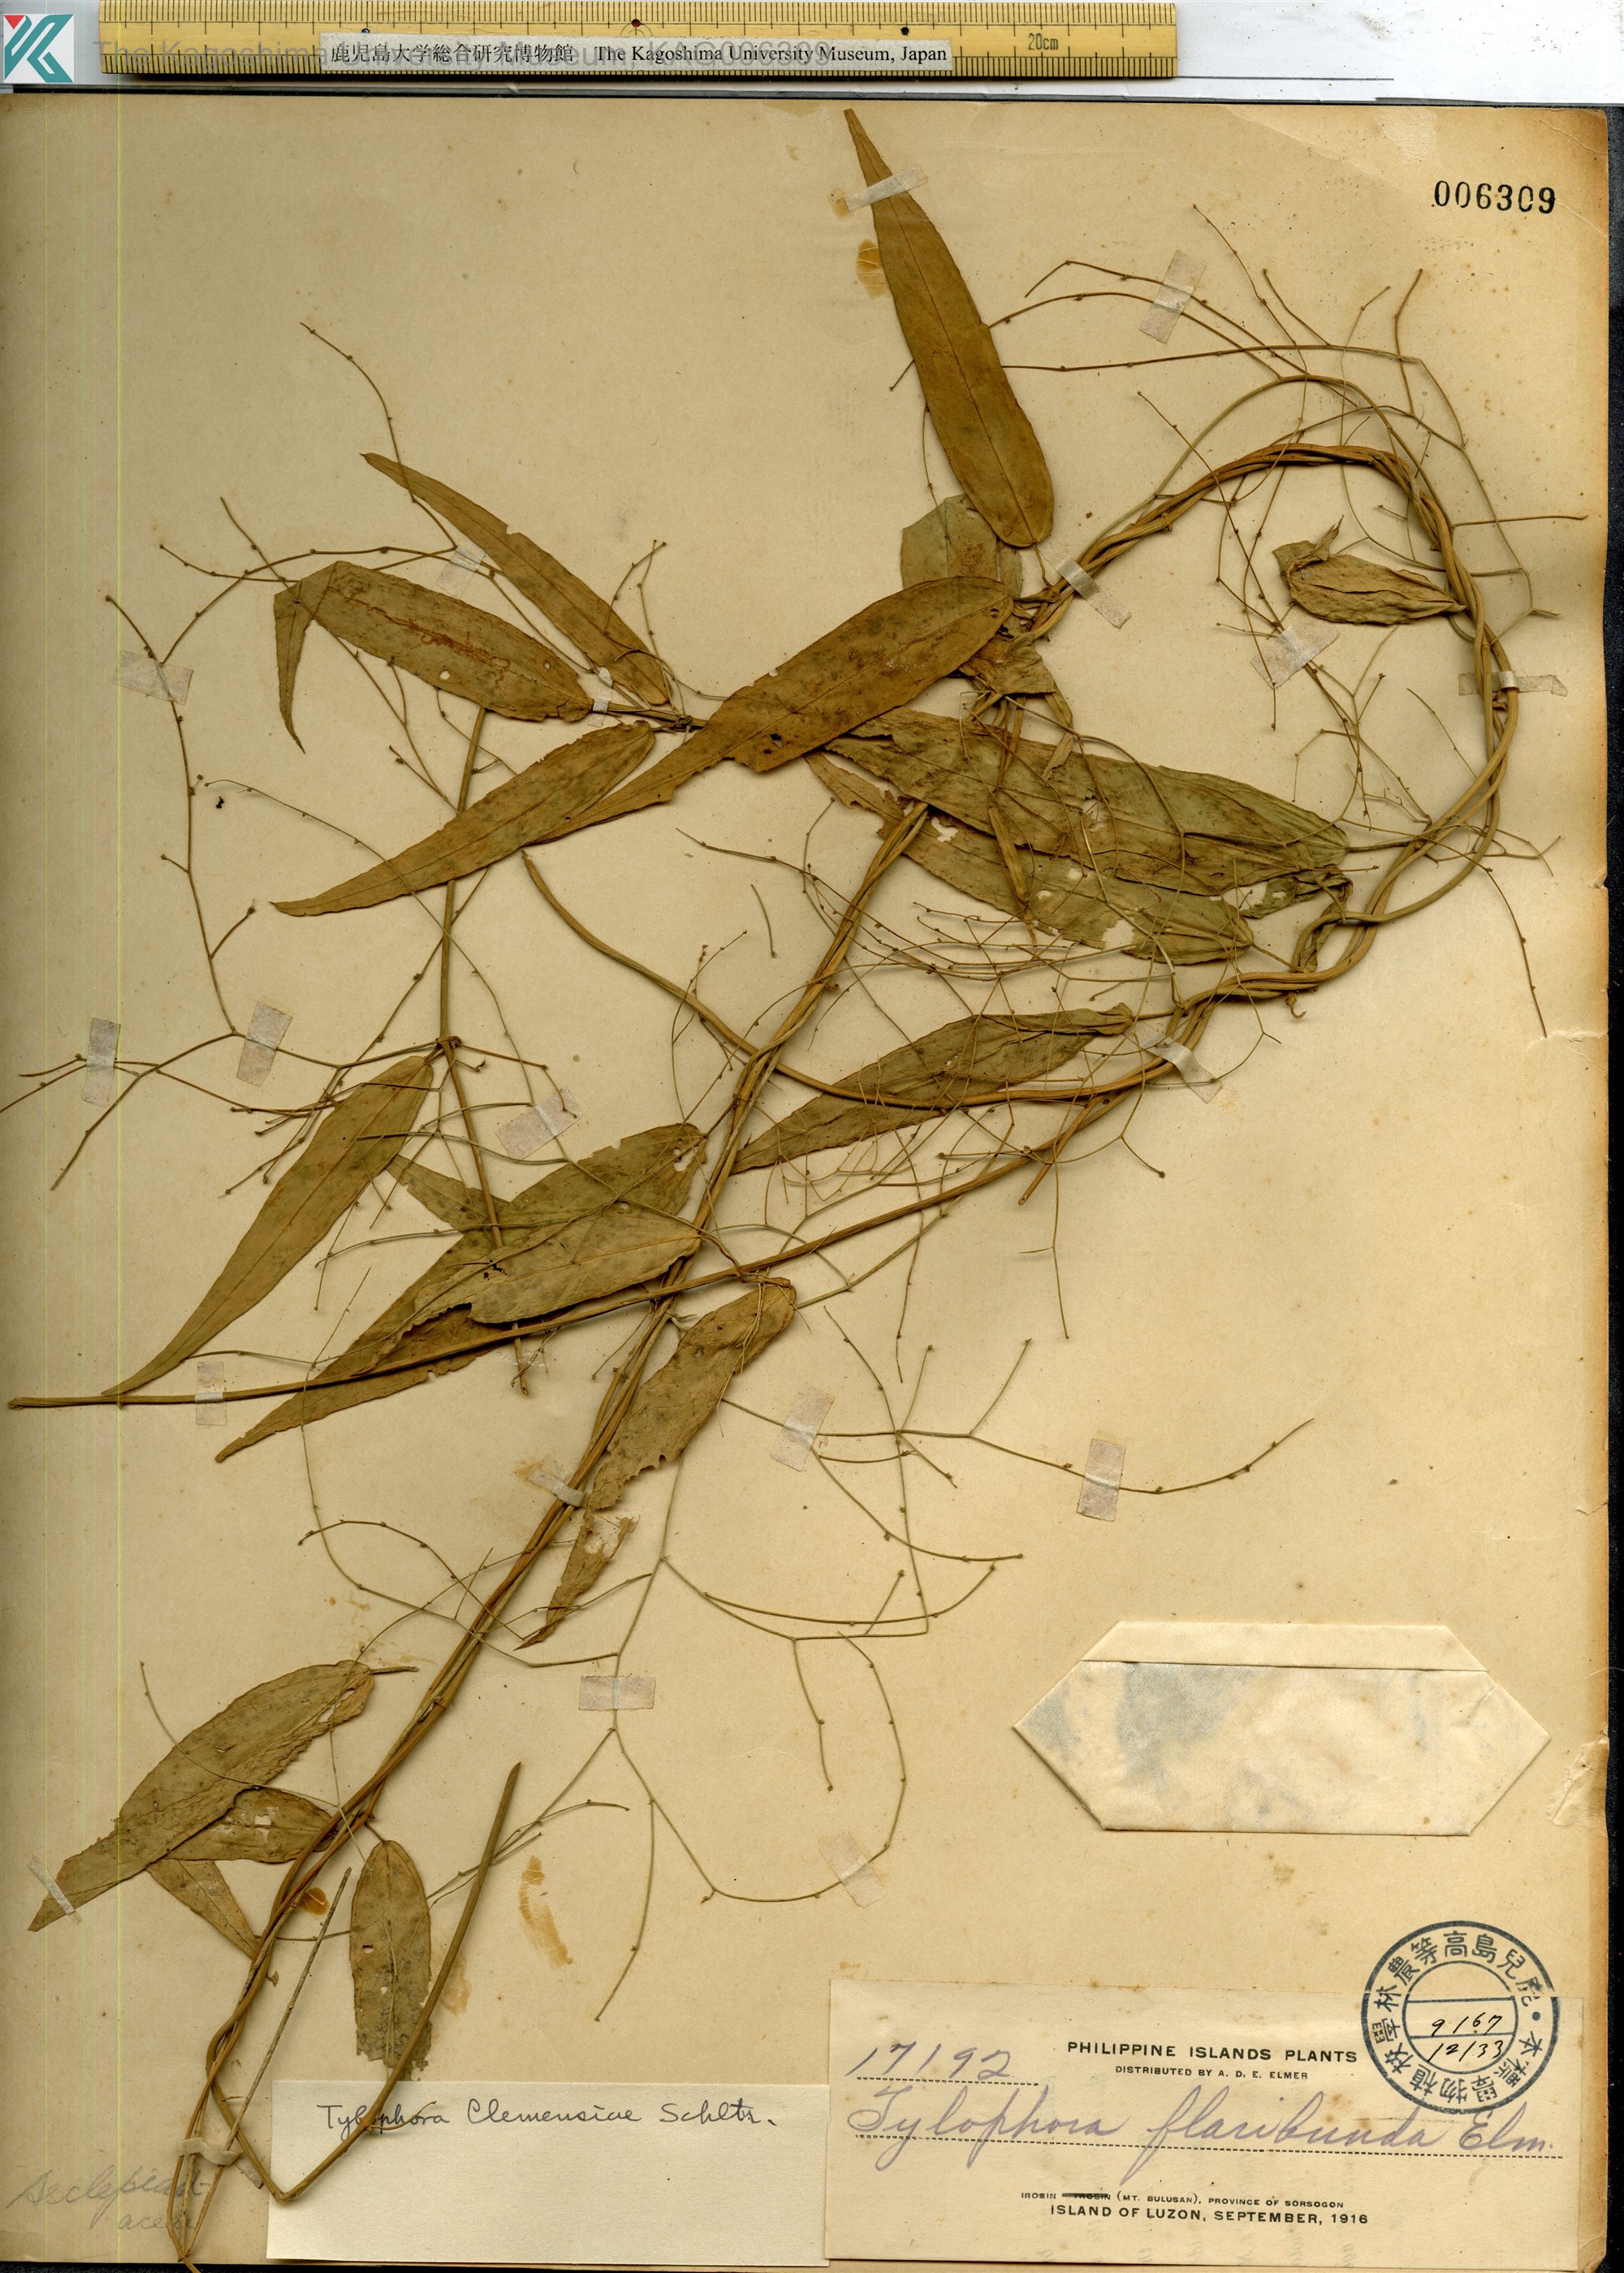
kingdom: Plantae
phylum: Tracheophyta
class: Magnoliopsida
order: Gentianales
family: Apocynaceae
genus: Vincetoxicum
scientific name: Vincetoxicum clemensiae
